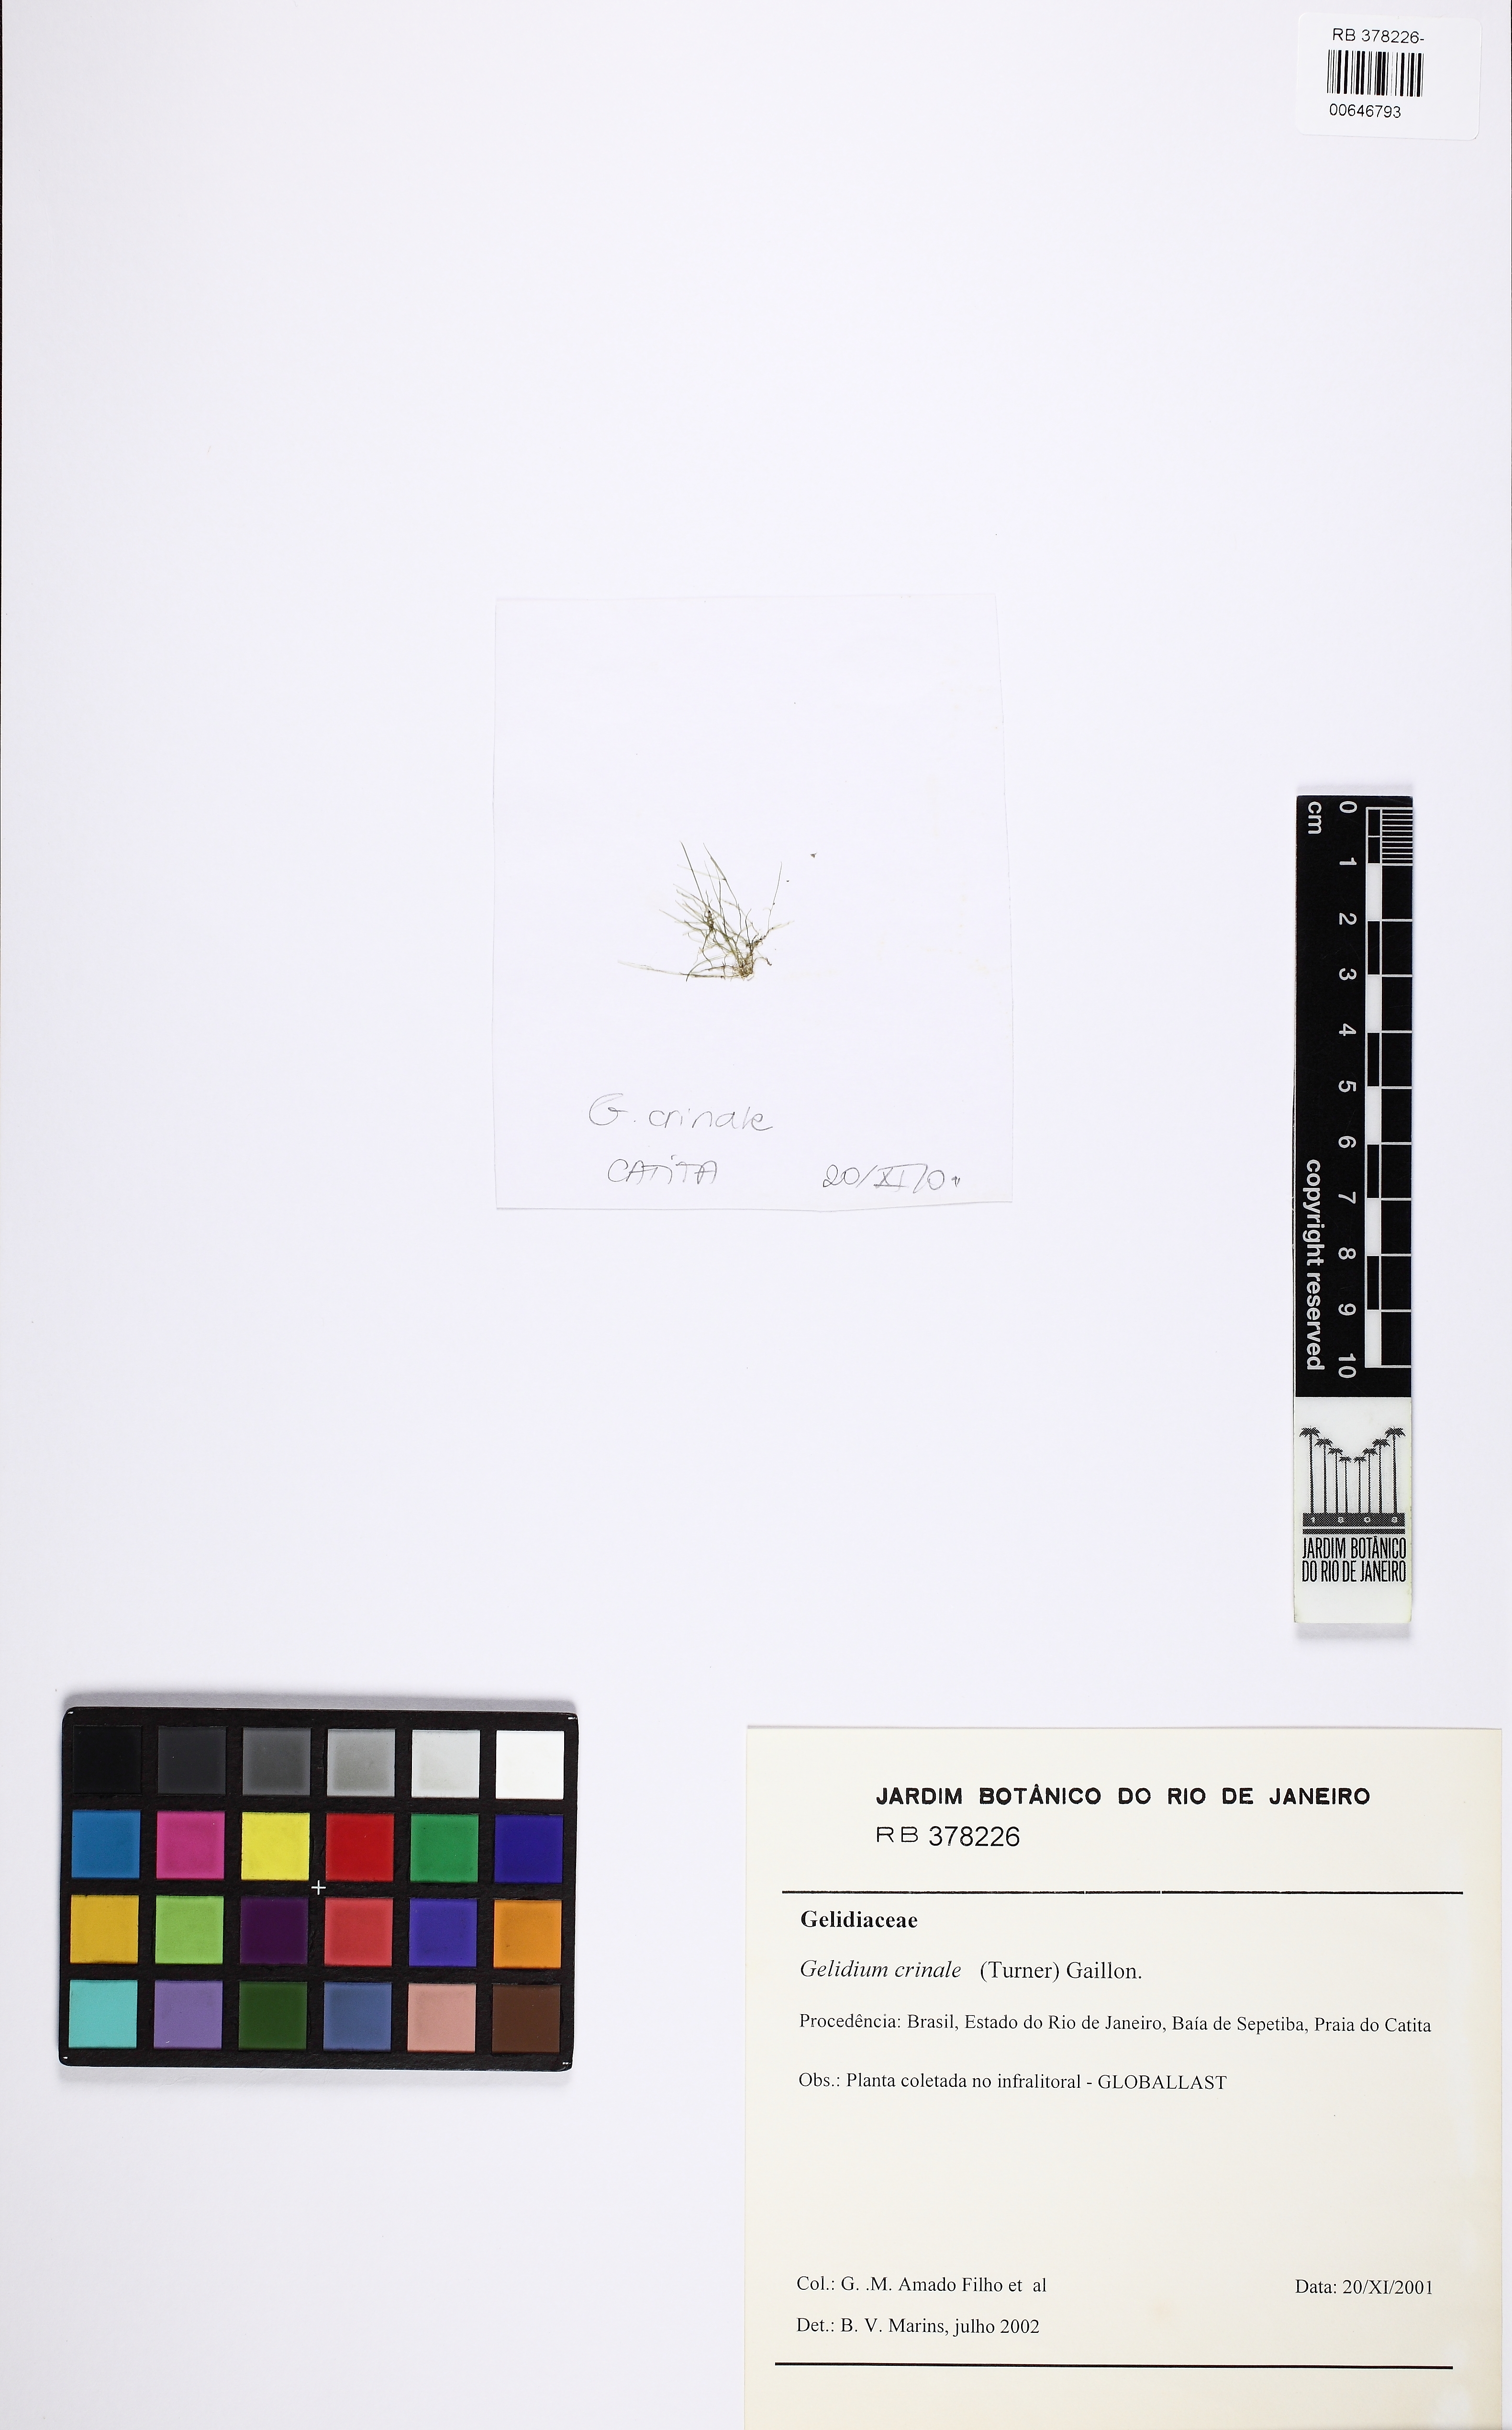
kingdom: Plantae
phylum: Rhodophyta
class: Florideophyceae
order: Gelidiales
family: Gelidiaceae
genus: Gelidium
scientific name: Gelidium crinale
